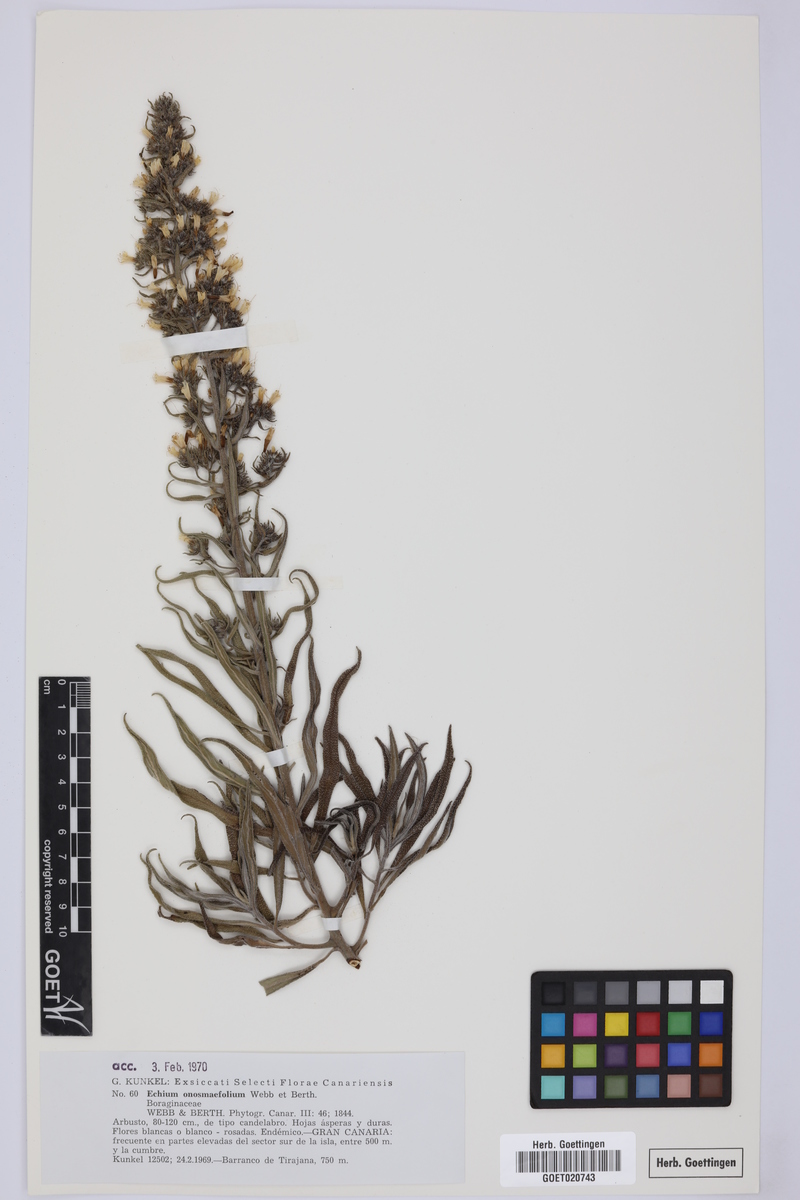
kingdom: Plantae
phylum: Tracheophyta
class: Magnoliopsida
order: Boraginales
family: Boraginaceae
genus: Echium
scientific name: Echium onosmifolium
